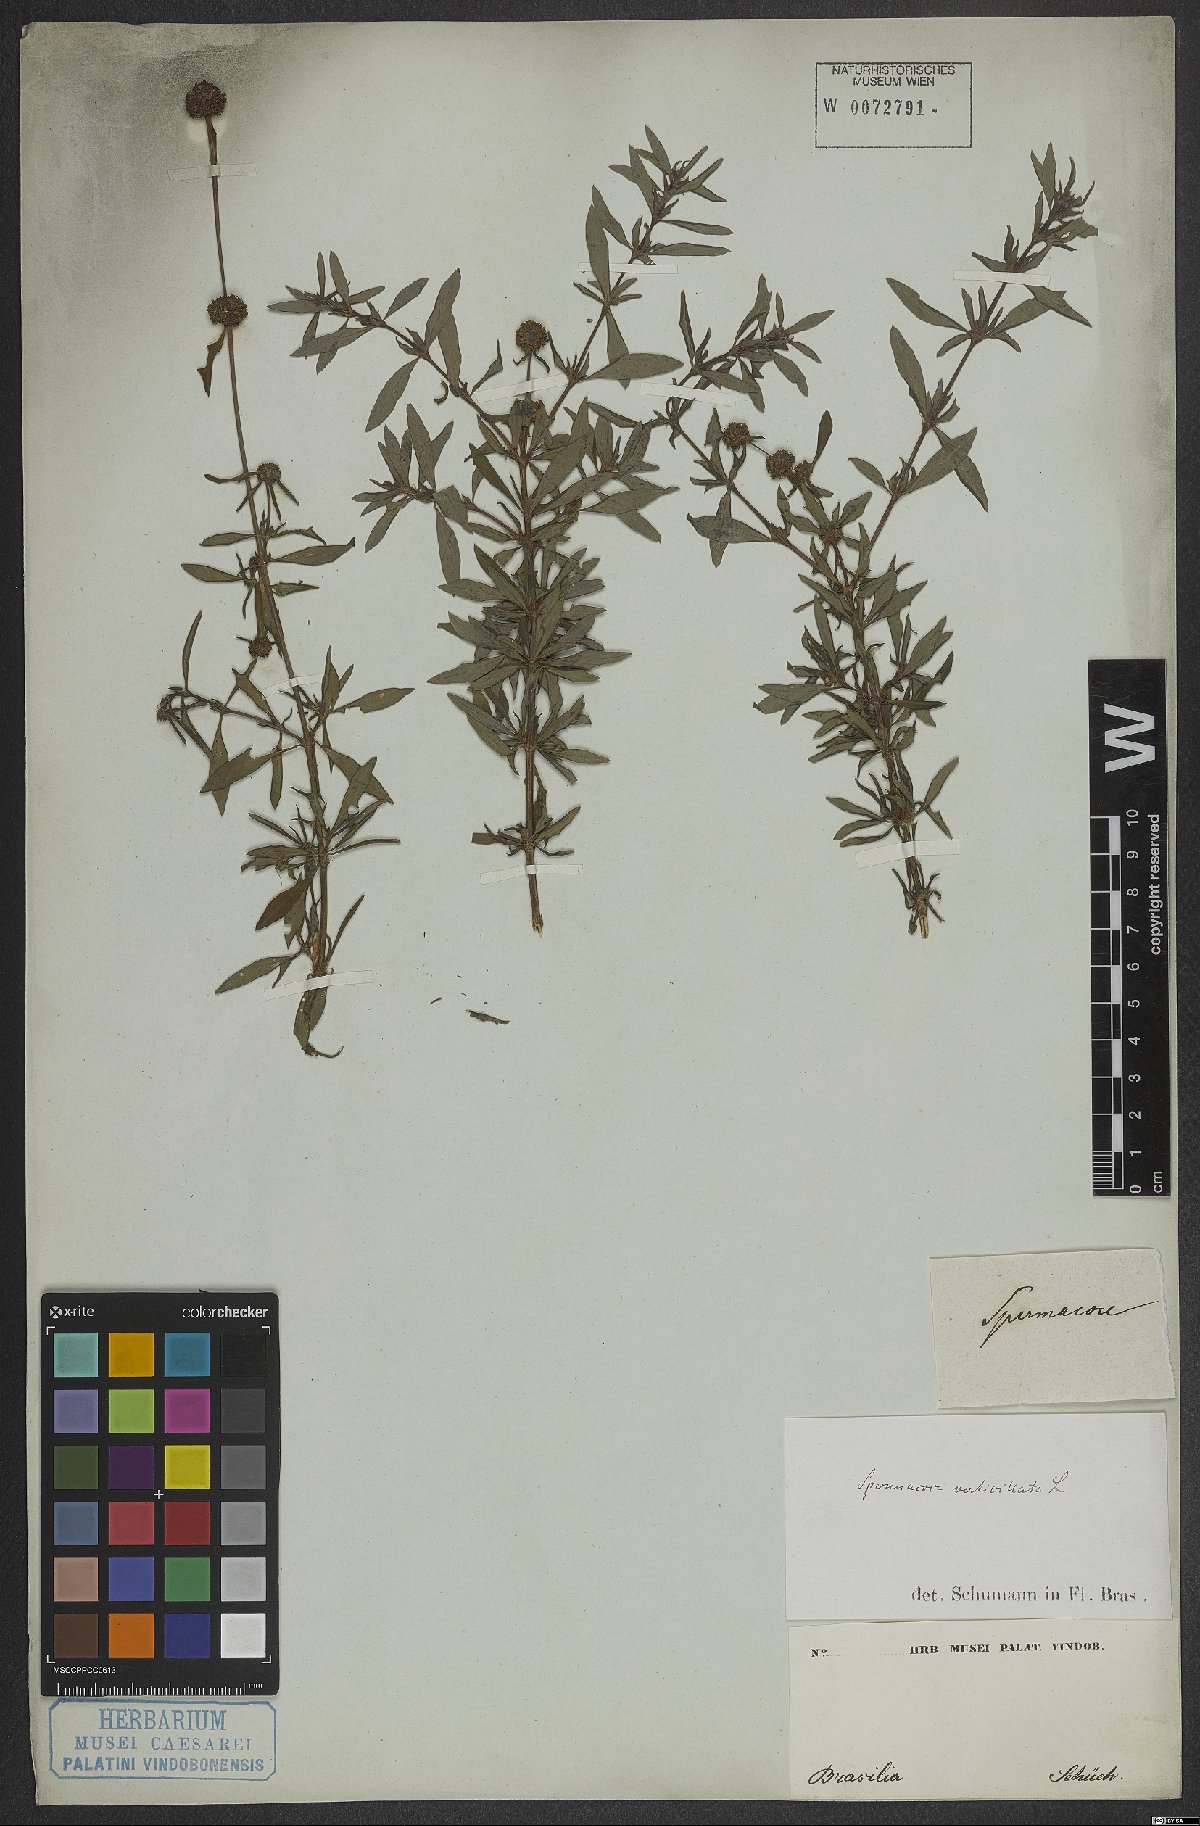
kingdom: Plantae
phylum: Tracheophyta
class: Magnoliopsida
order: Gentianales
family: Rubiaceae
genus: Spermacoce
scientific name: Spermacoce verticillata
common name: Shrubby false buttonweed
